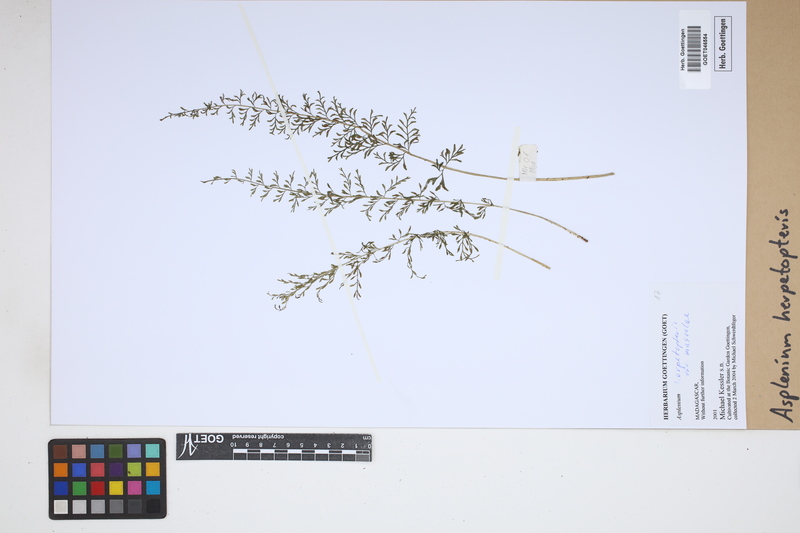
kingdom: Plantae
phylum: Tracheophyta
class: Polypodiopsida
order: Polypodiales
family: Aspleniaceae
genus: Asplenium
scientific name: Asplenium herpetopteris
